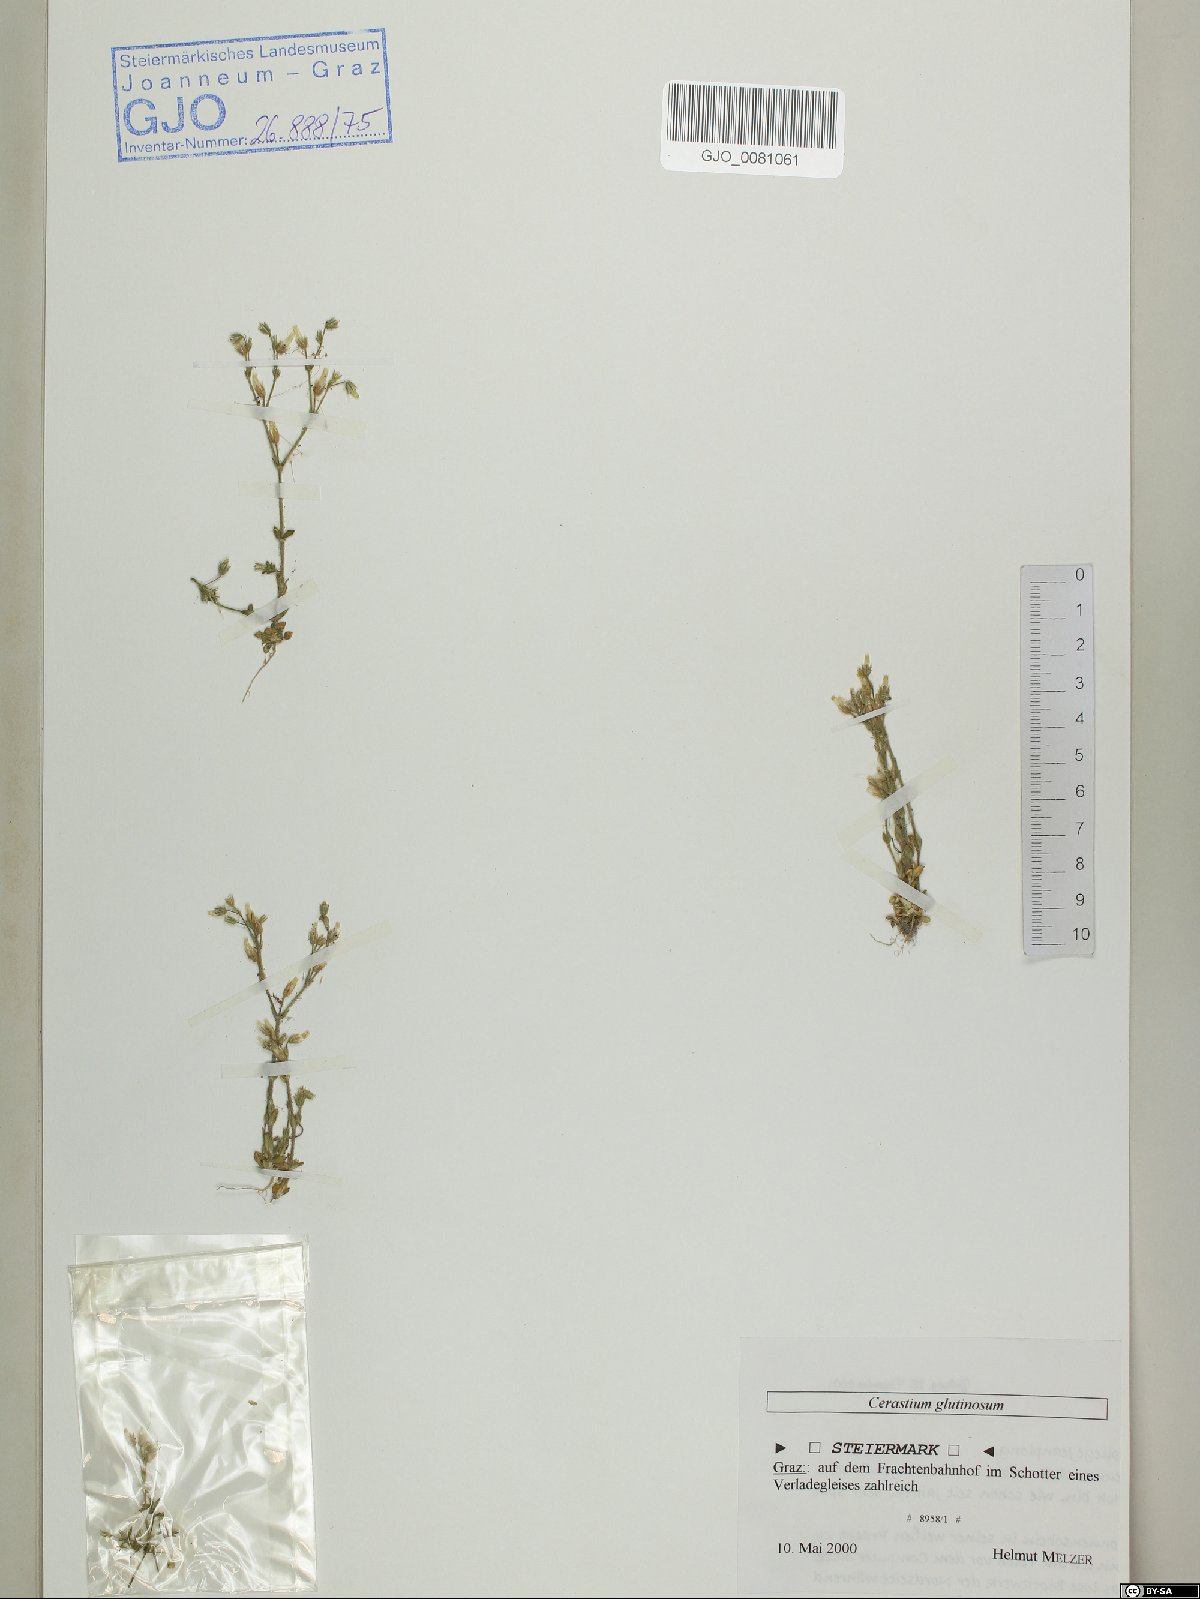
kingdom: Plantae
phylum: Tracheophyta
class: Magnoliopsida
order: Caryophyllales
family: Caryophyllaceae
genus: Cerastium
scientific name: Cerastium glutinosum
